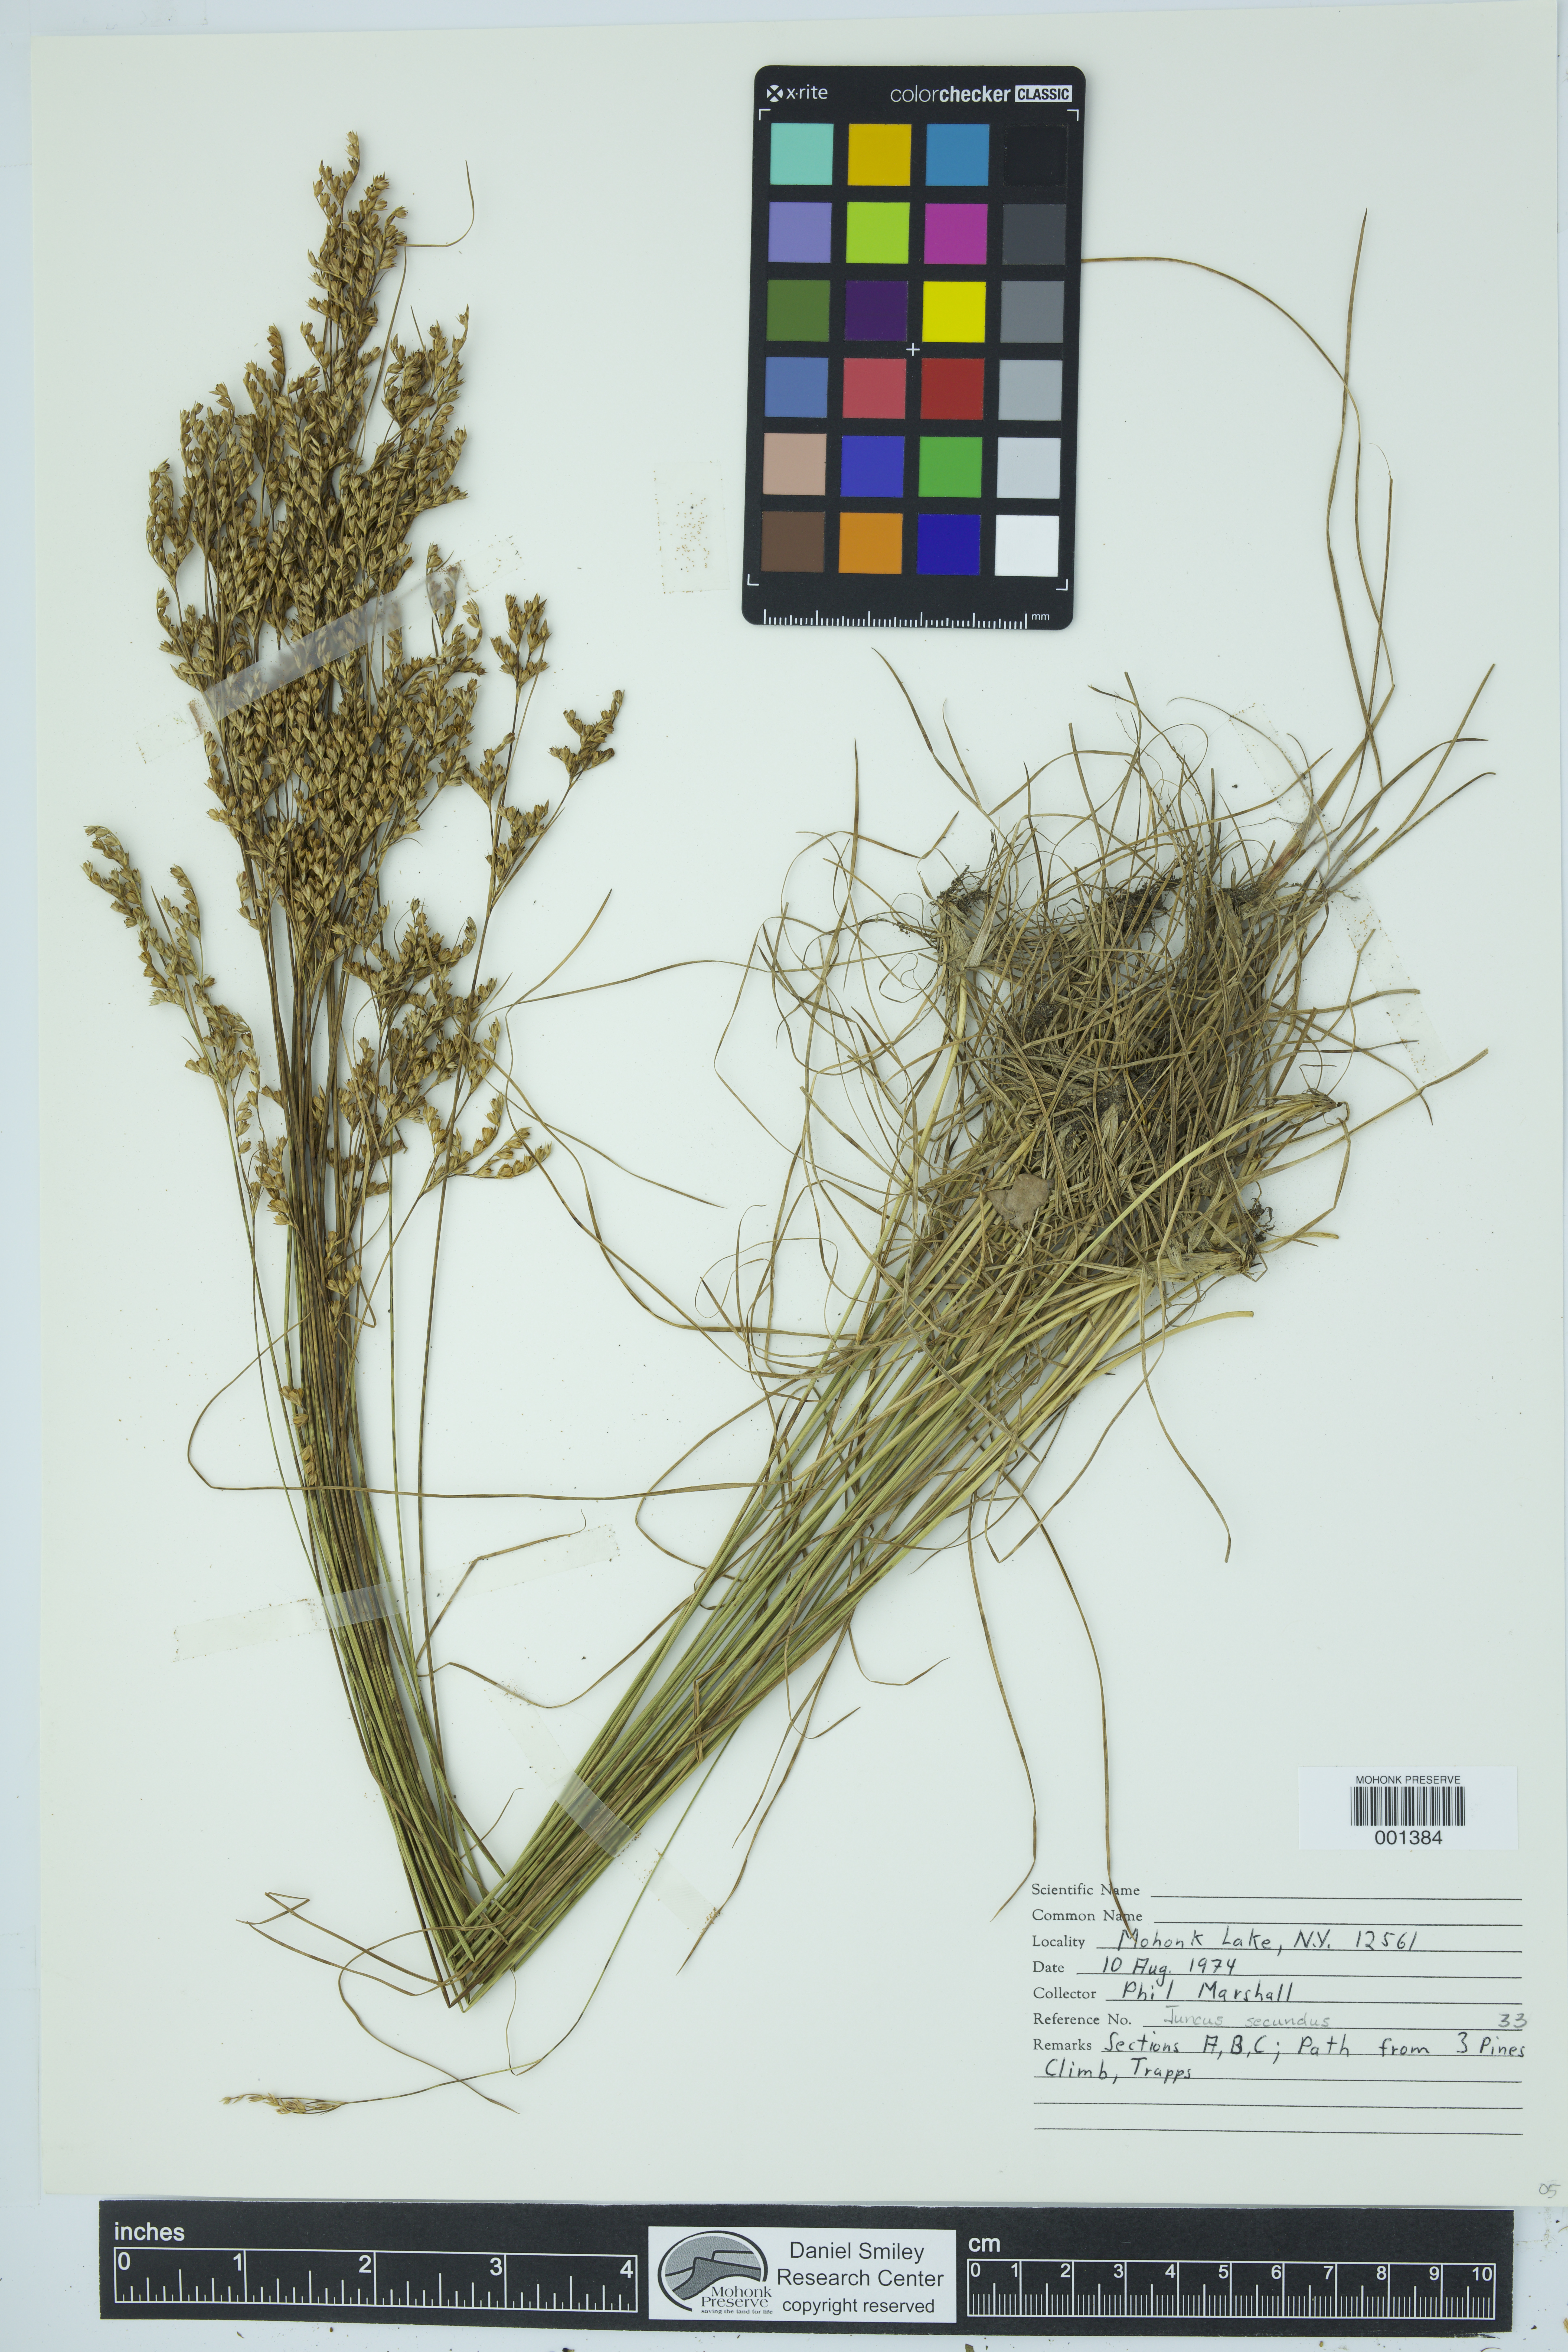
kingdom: Plantae
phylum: Tracheophyta
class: Liliopsida
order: Poales
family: Juncaceae
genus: Juncus
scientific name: Juncus secundus
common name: Lopsided rush
